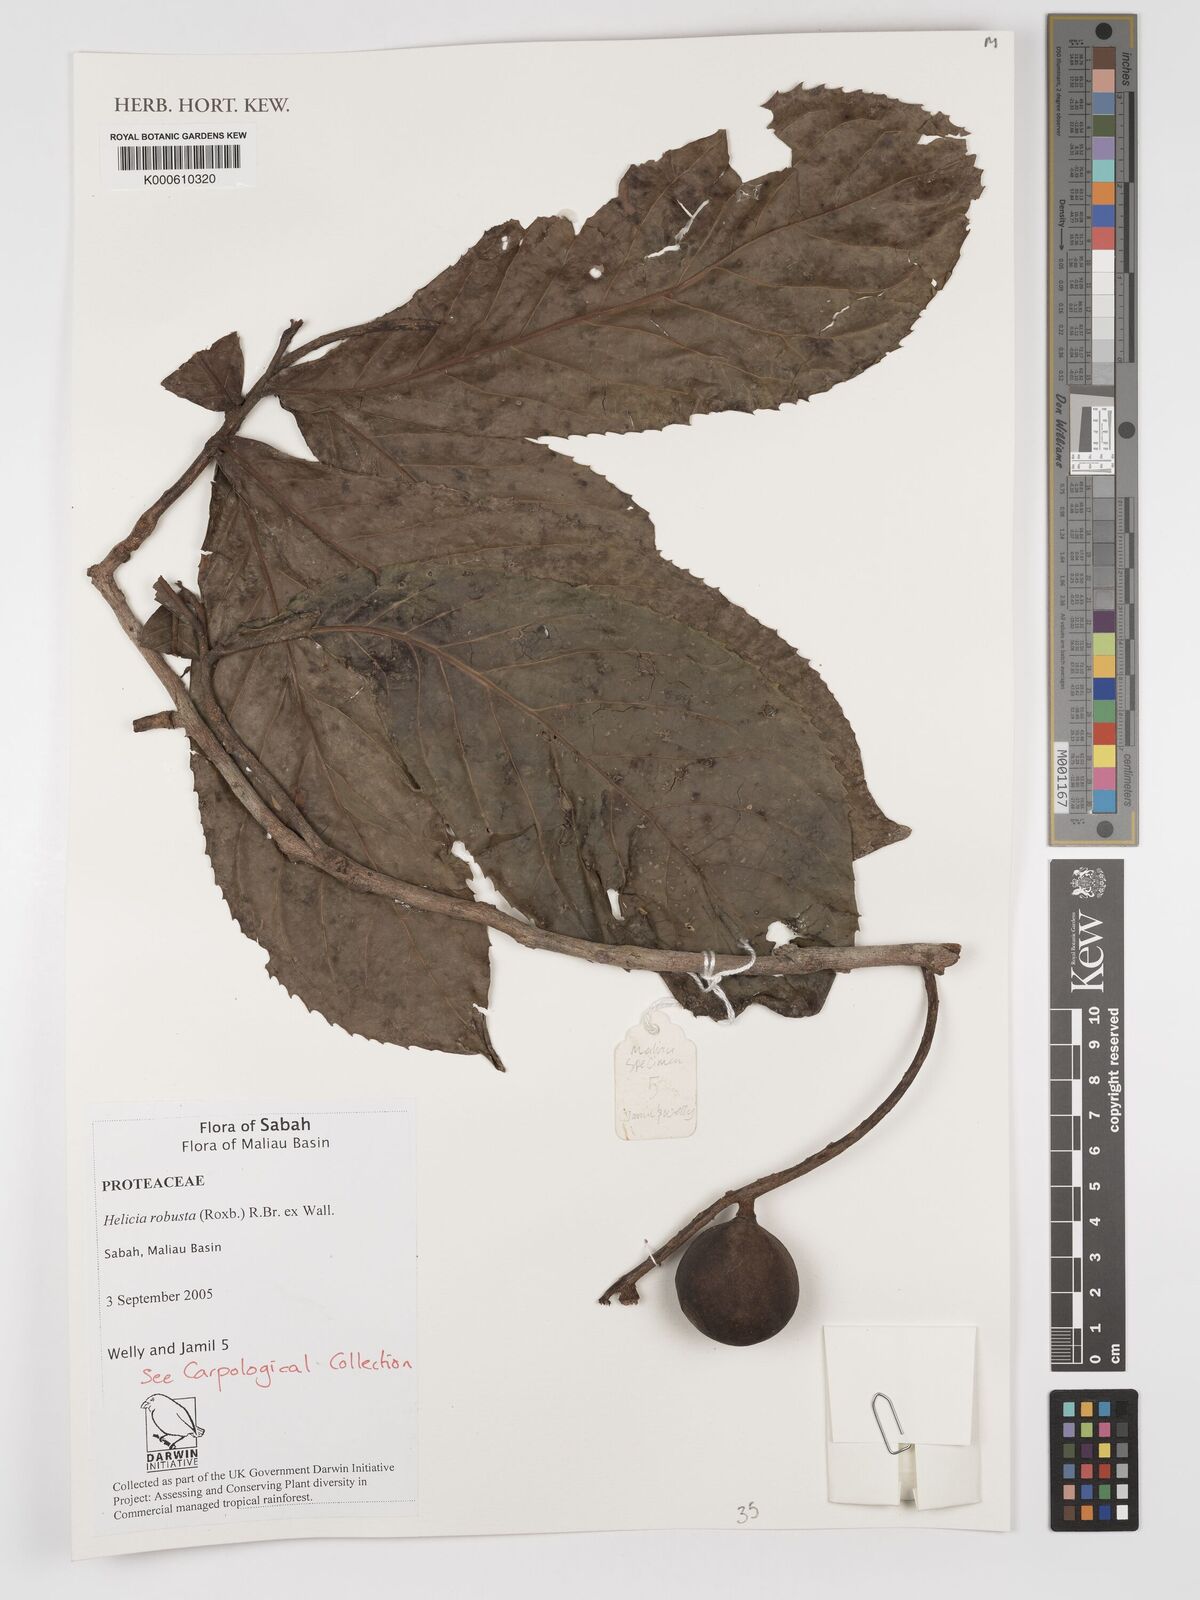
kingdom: Plantae
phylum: Tracheophyta
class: Magnoliopsida
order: Proteales
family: Proteaceae
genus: Helicia
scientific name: Helicia
